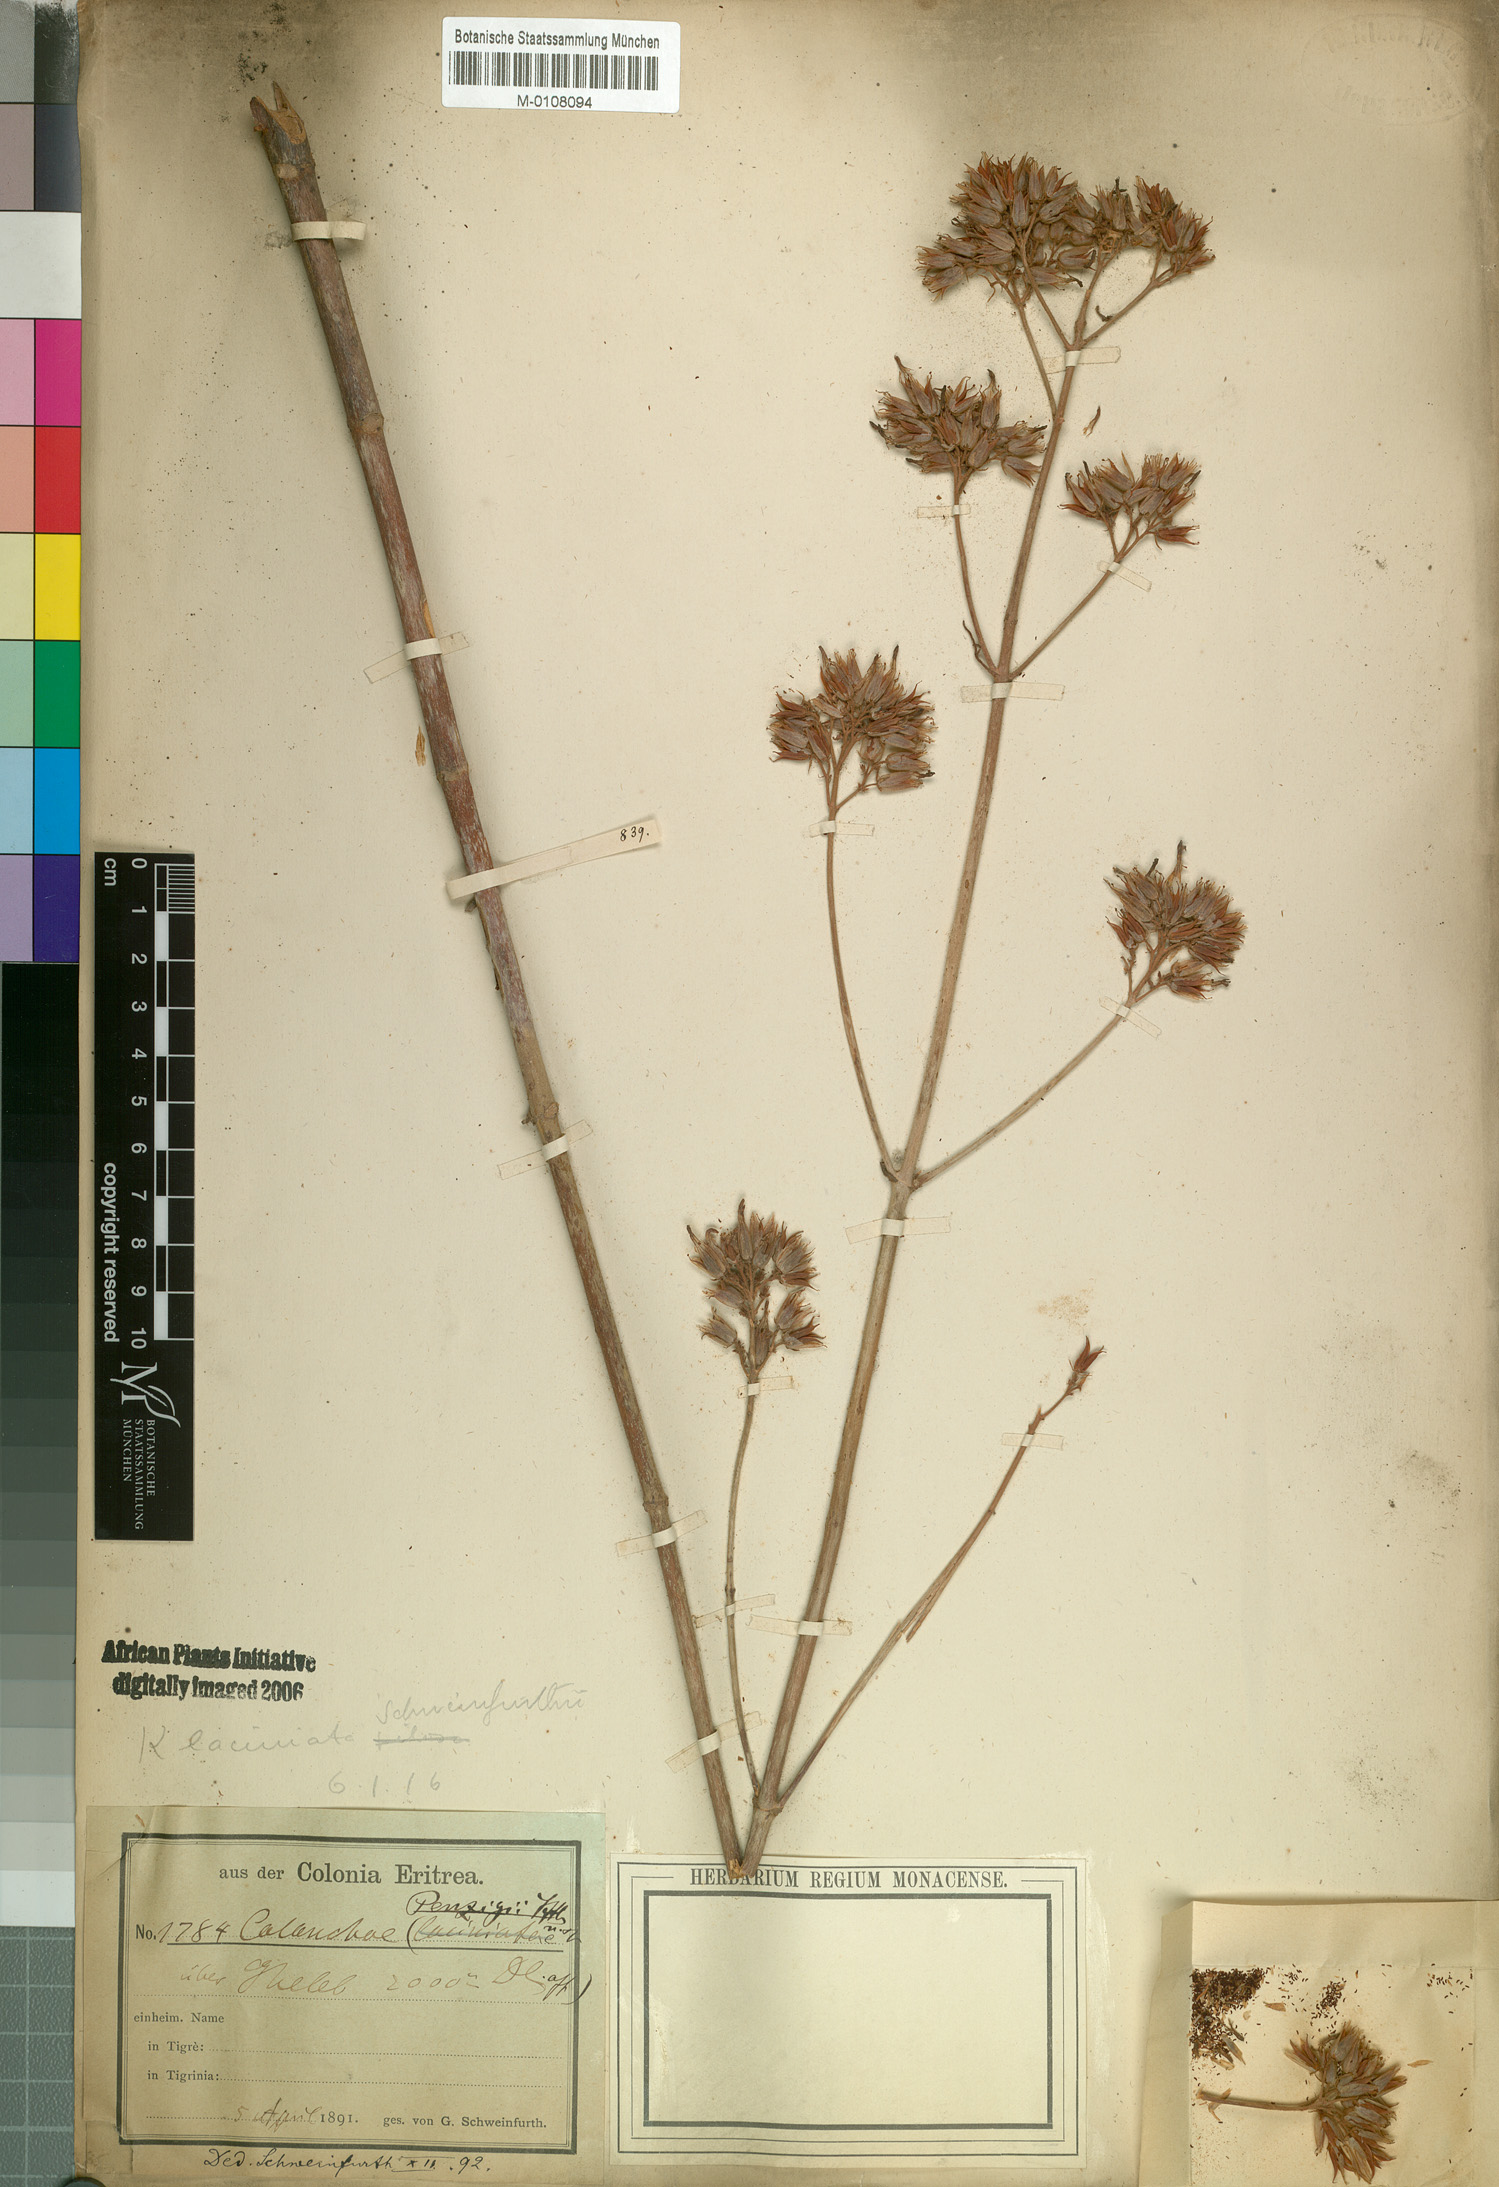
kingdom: Plantae
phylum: Tracheophyta
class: Magnoliopsida
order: Saxifragales
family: Crassulaceae
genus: Kalanchoe
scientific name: Kalanchoe laciniata
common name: Christmastree plant
